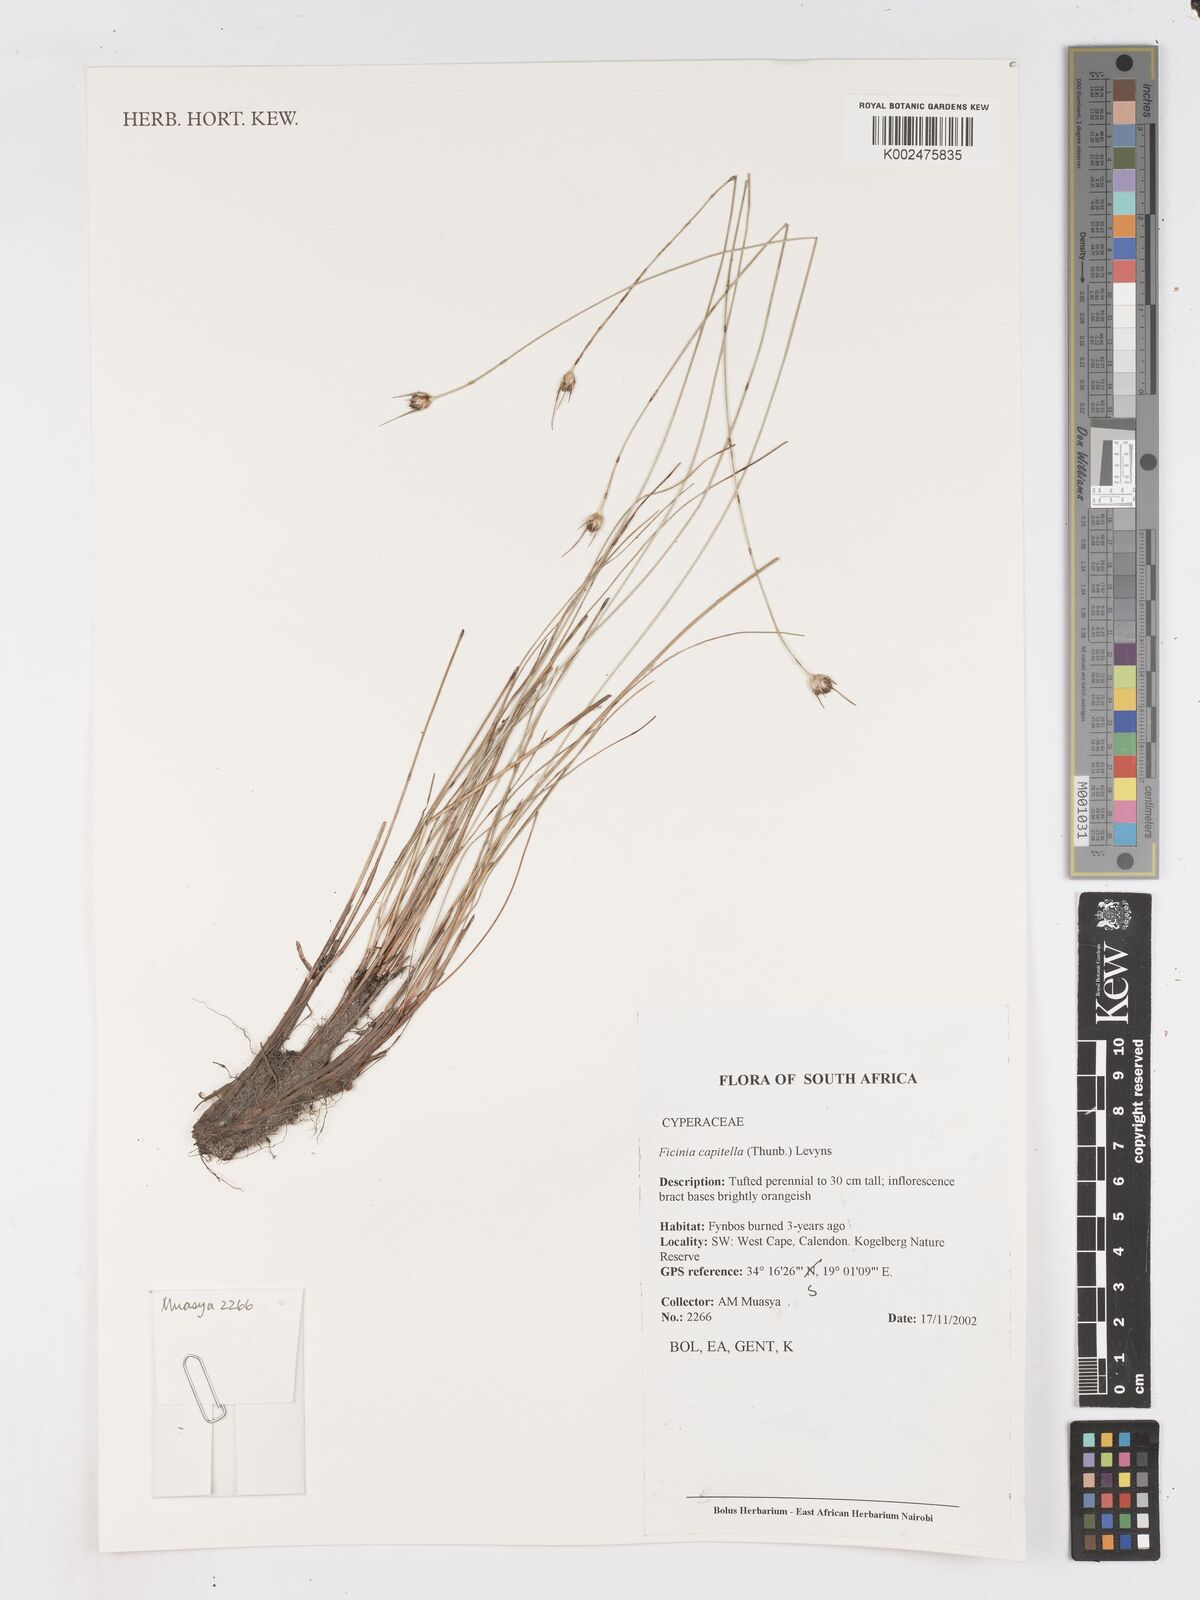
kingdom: Plantae
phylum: Tracheophyta
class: Liliopsida
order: Poales
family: Cyperaceae
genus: Ficinia
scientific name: Ficinia capitella
